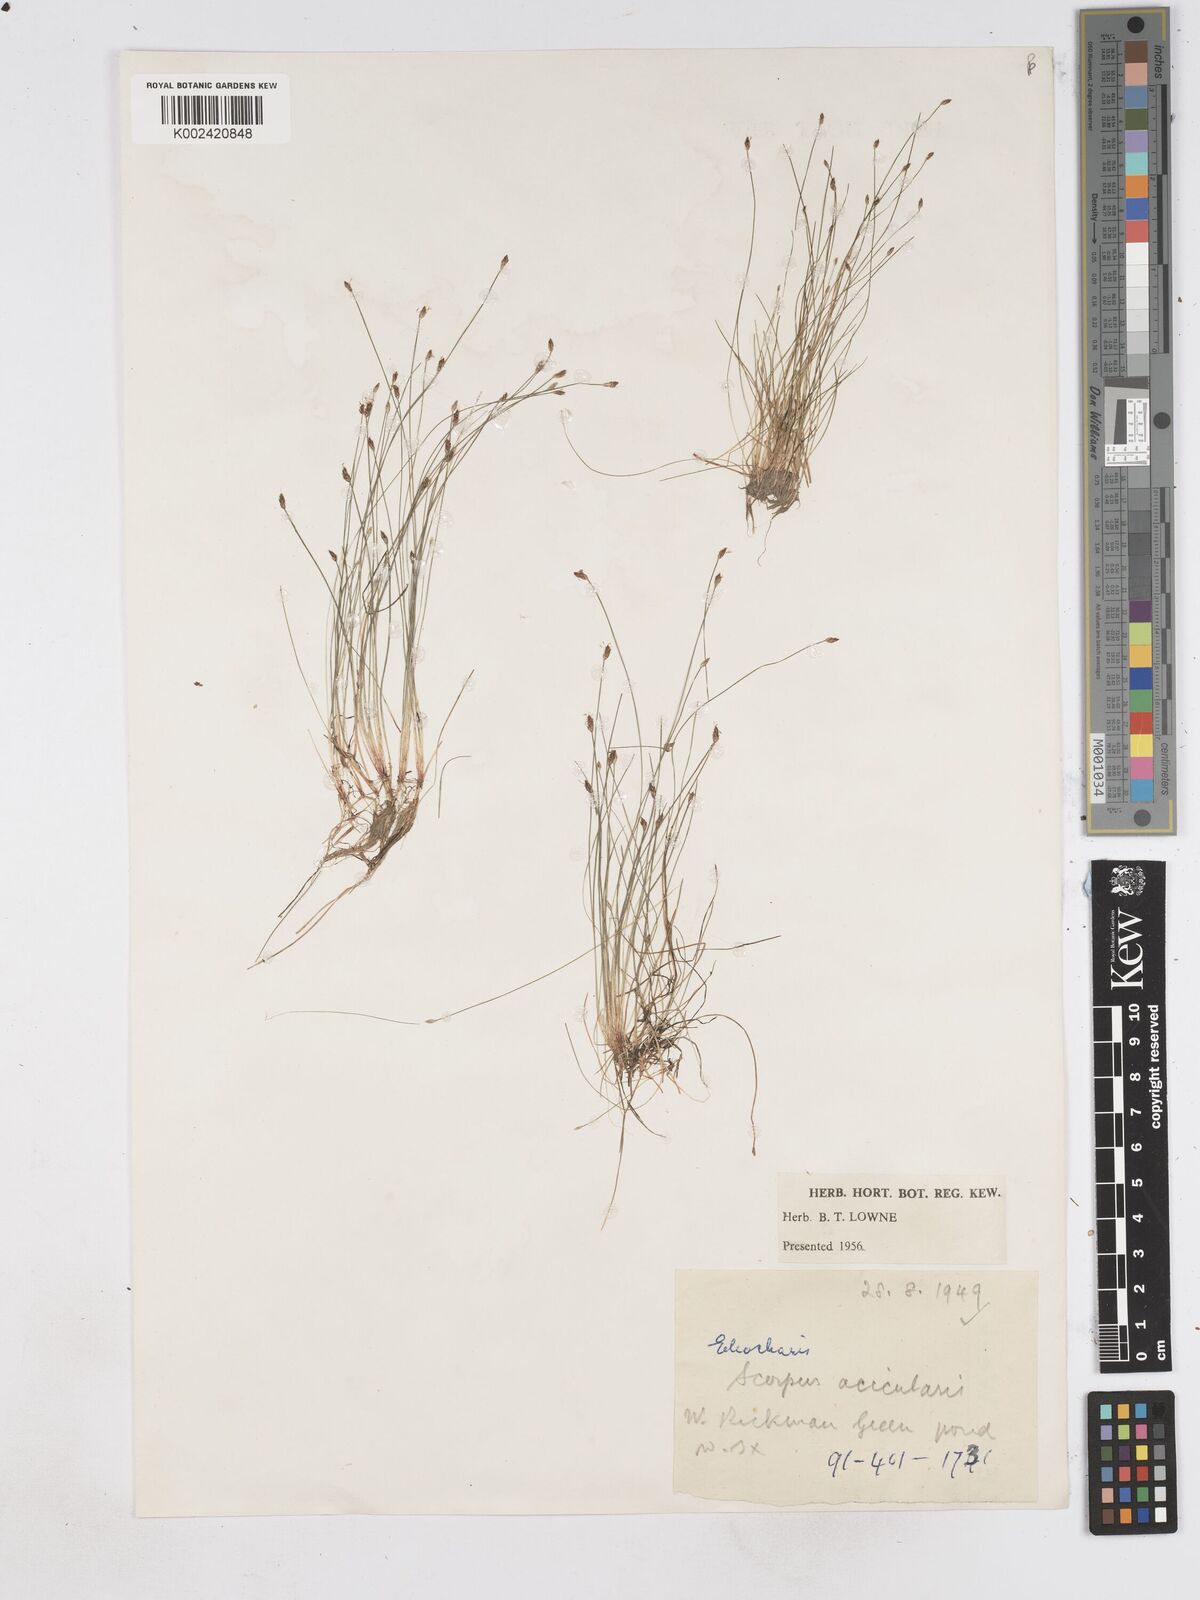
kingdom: Plantae
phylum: Tracheophyta
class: Liliopsida
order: Poales
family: Cyperaceae
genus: Eleocharis
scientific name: Eleocharis acicularis
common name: Needle spike-rush
